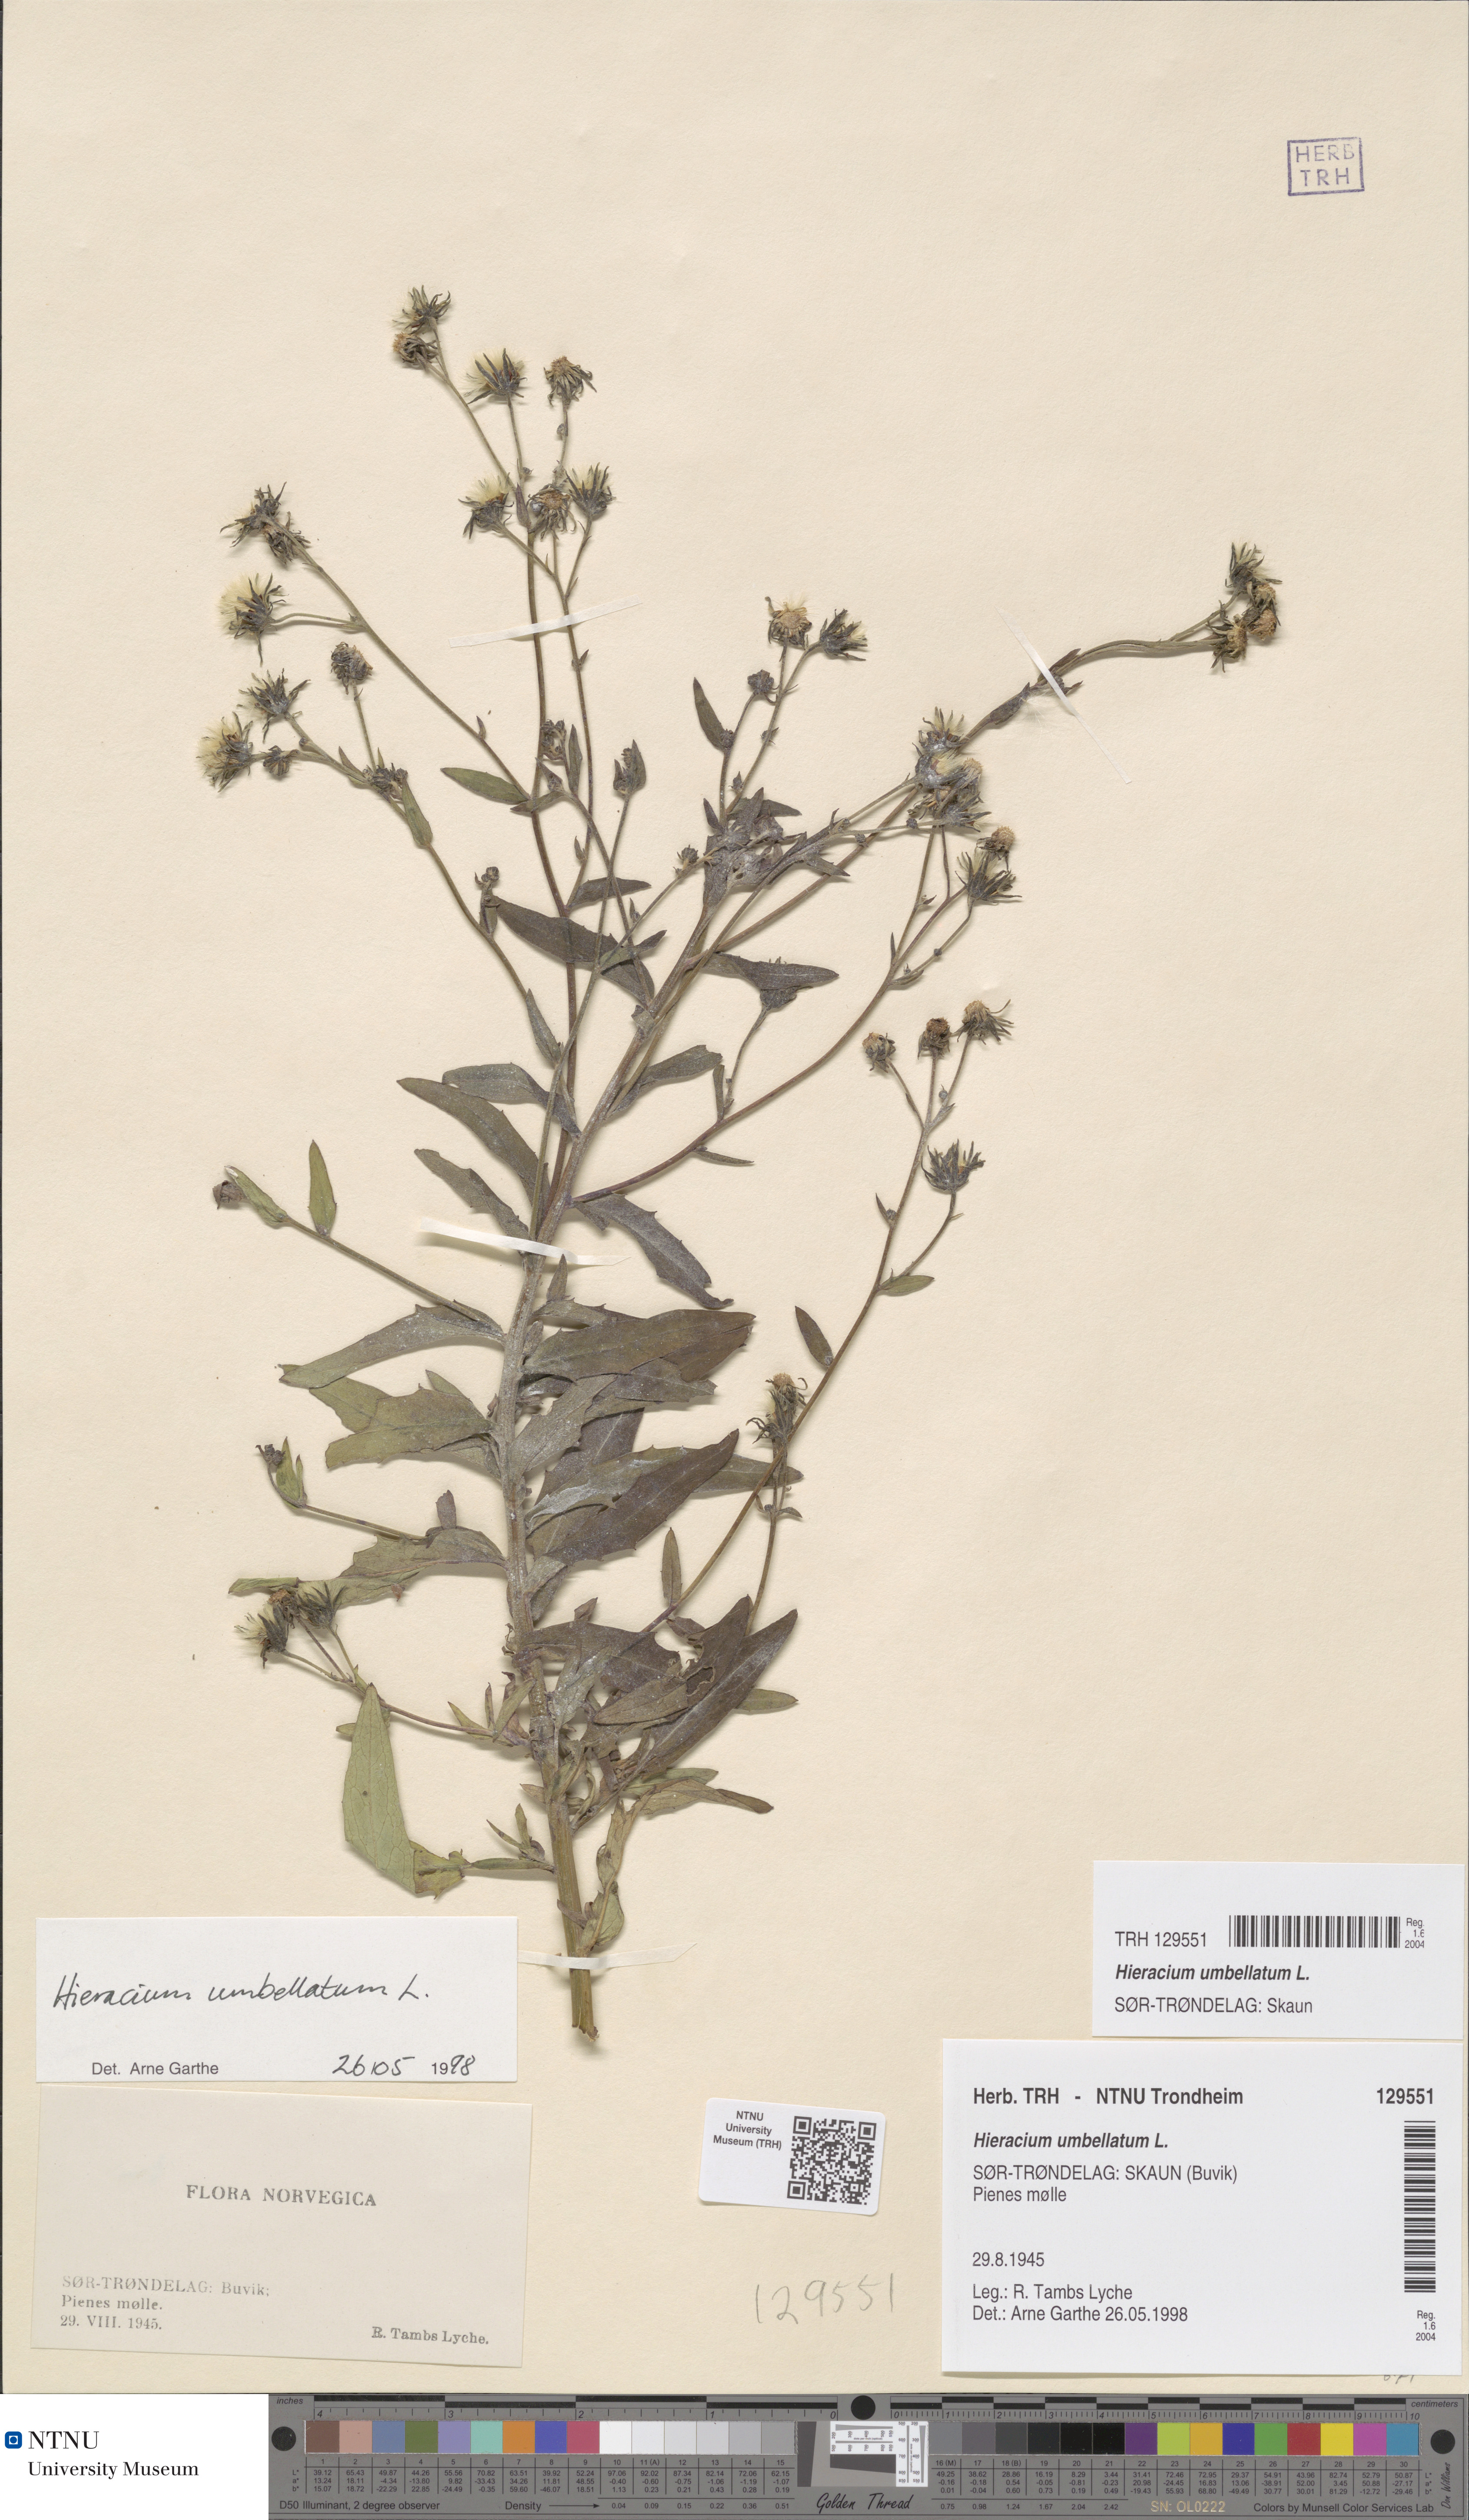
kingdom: Plantae
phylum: Tracheophyta
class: Magnoliopsida
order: Asterales
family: Asteraceae
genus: Hieracium
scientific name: Hieracium umbellatum
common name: Northern hawkweed
